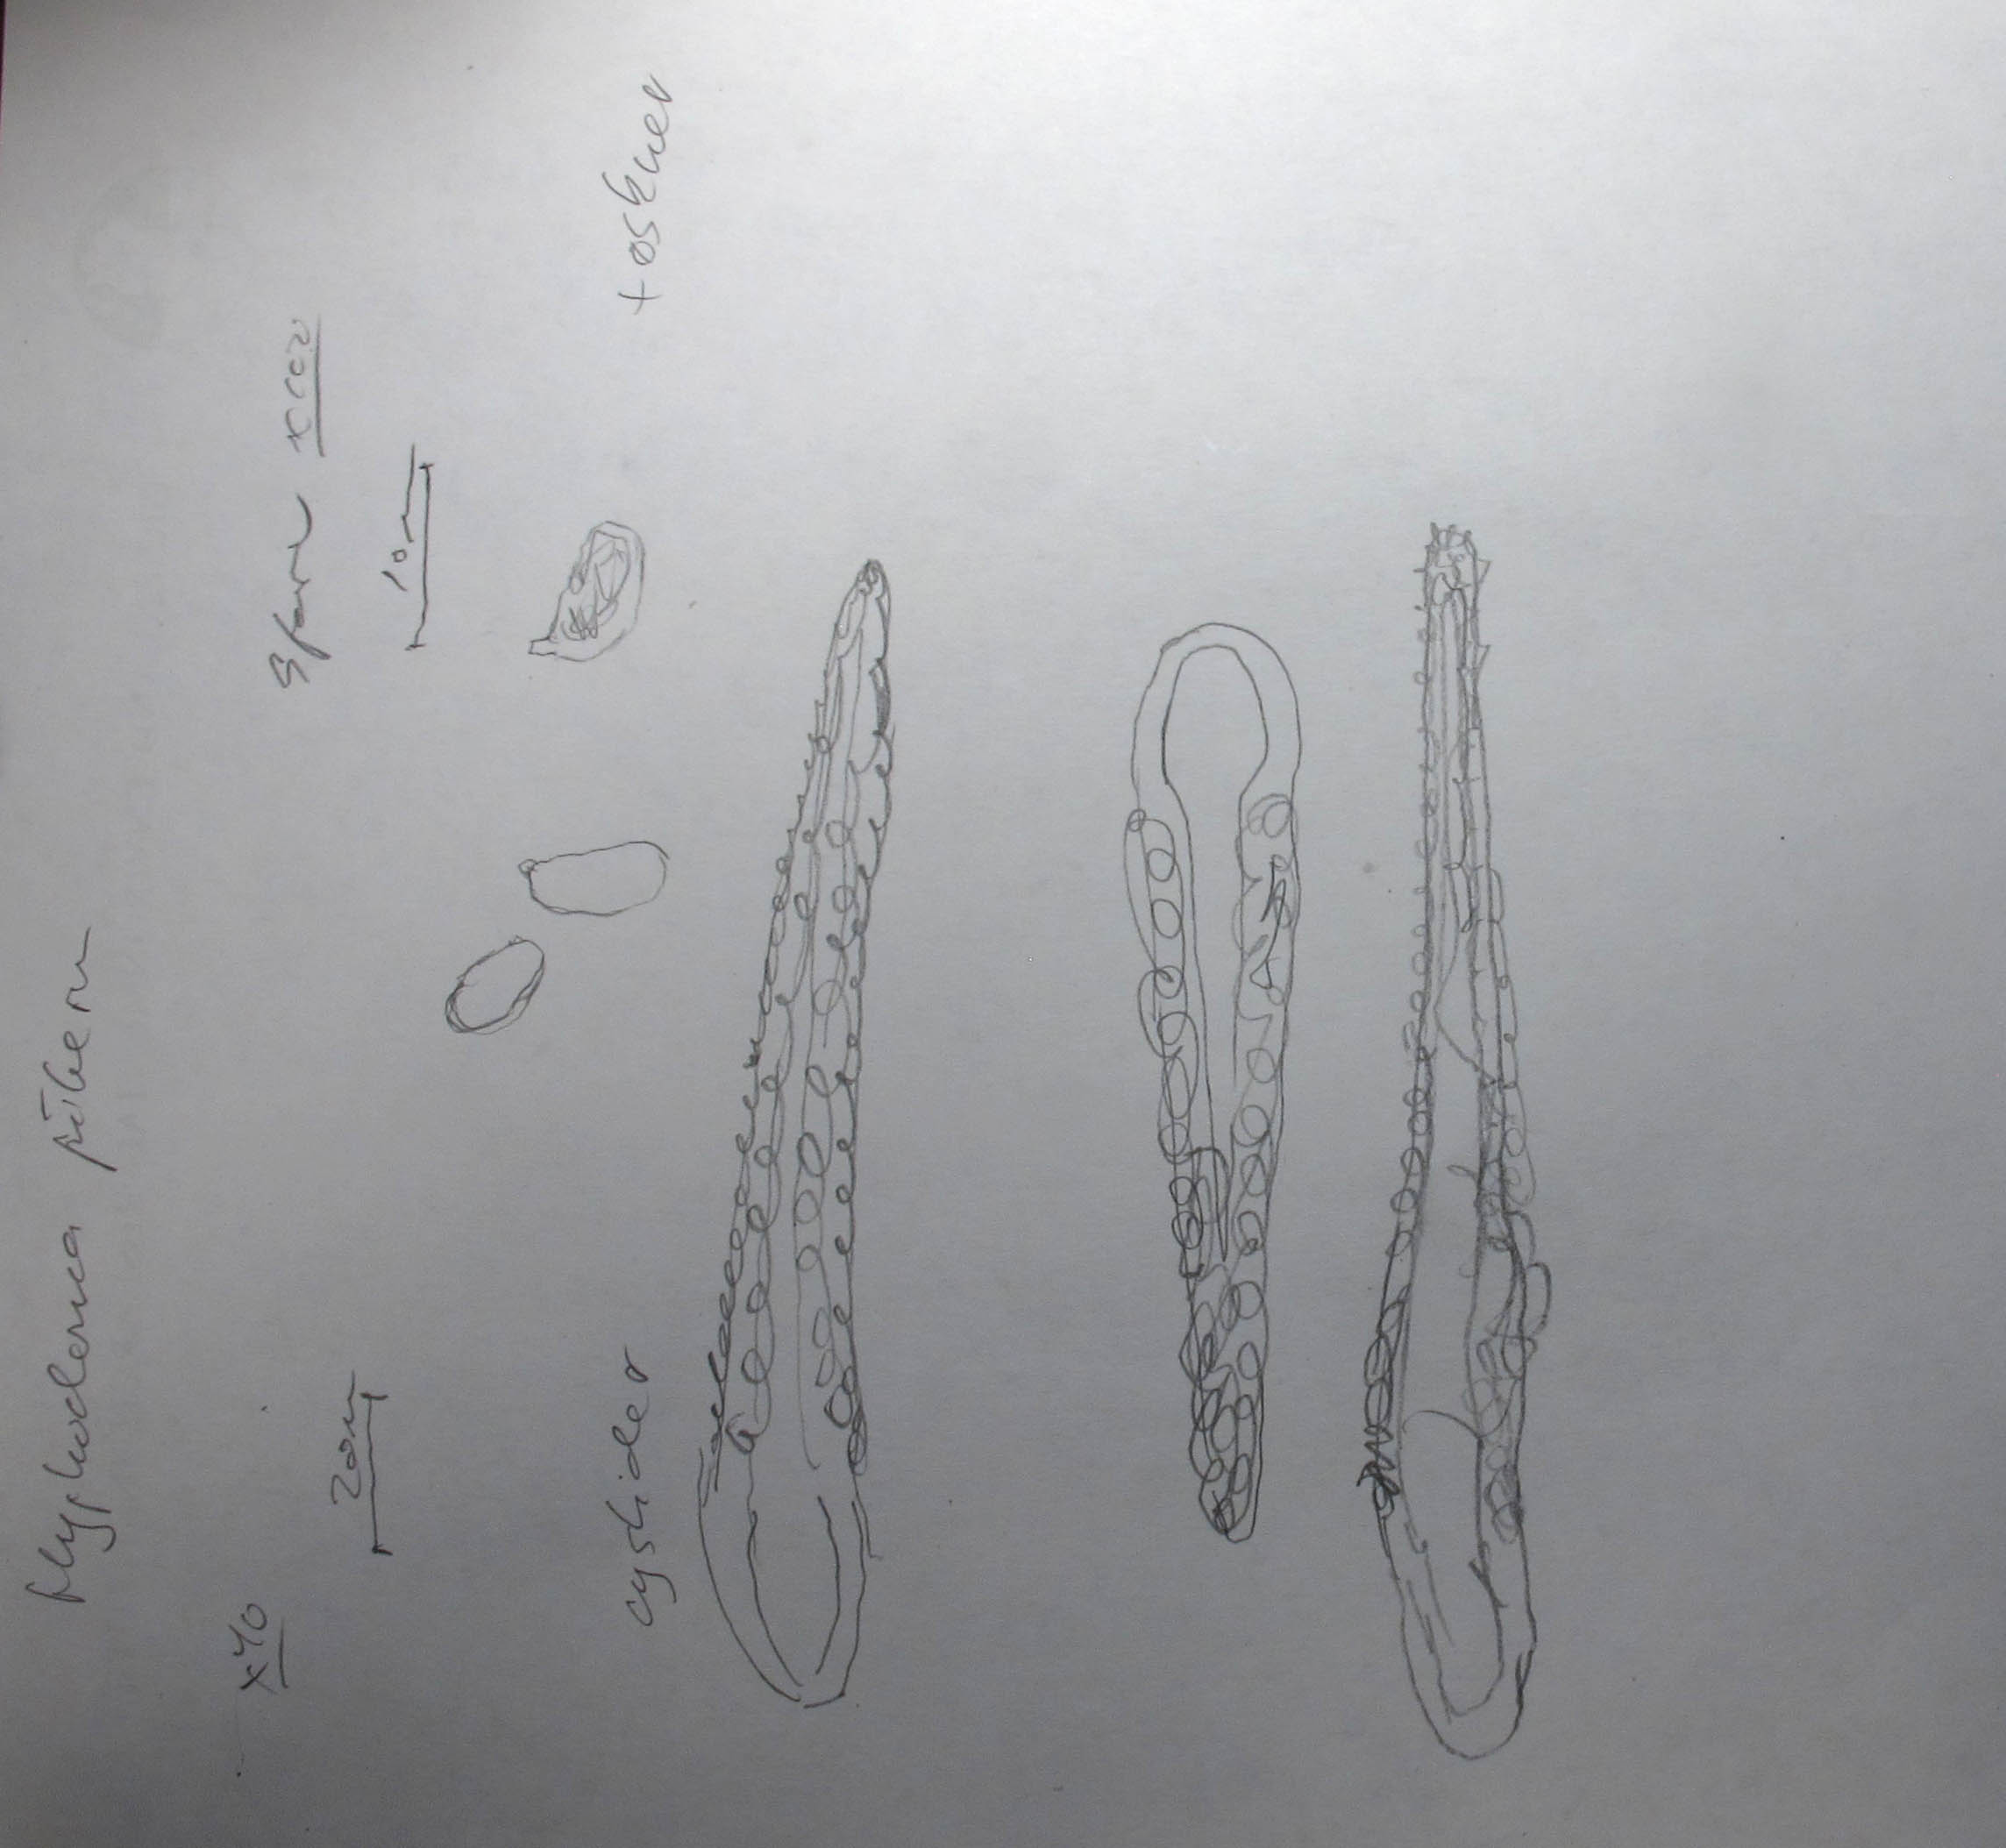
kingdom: Fungi
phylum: Basidiomycota
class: Agaricomycetes
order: Hymenochaetales
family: Rickenellaceae
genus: Peniophorella
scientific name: Peniophorella pubera
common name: dunet kalkskind
